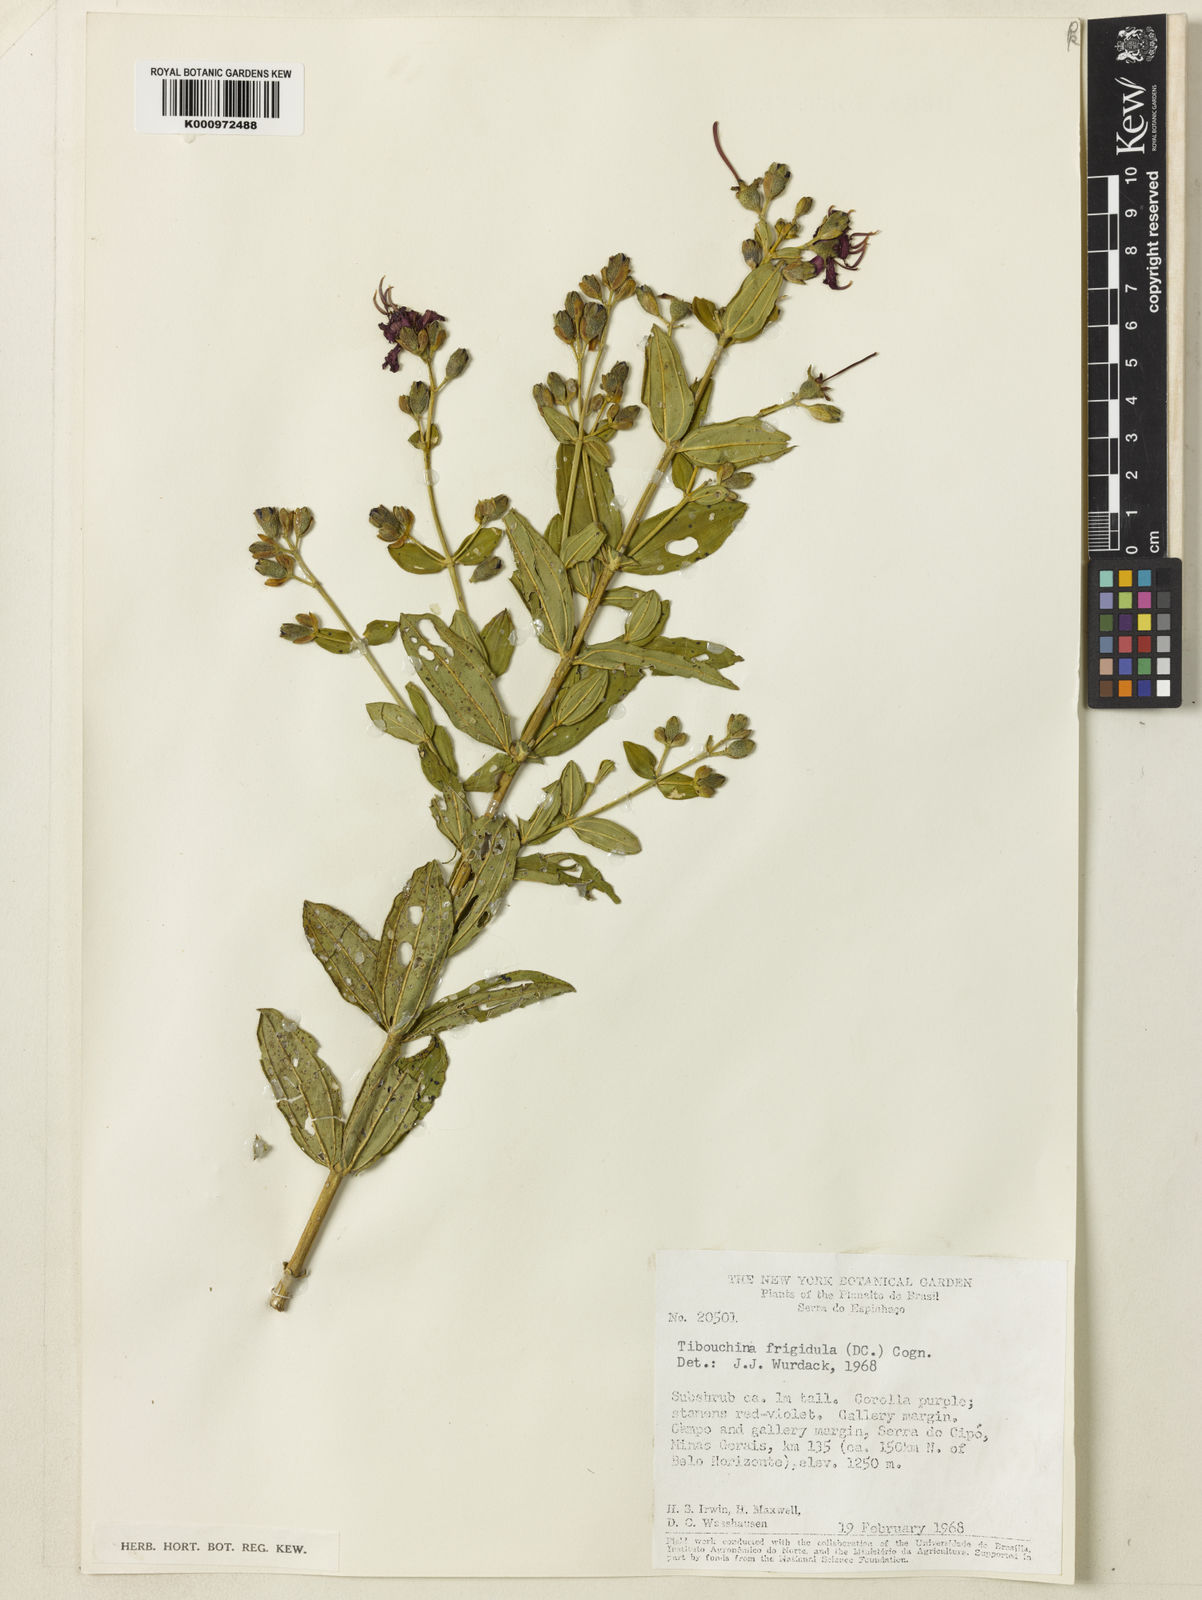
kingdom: Plantae
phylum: Tracheophyta
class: Magnoliopsida
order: Myrtales
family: Melastomataceae
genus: Pleroma
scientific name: Pleroma martiusianum
